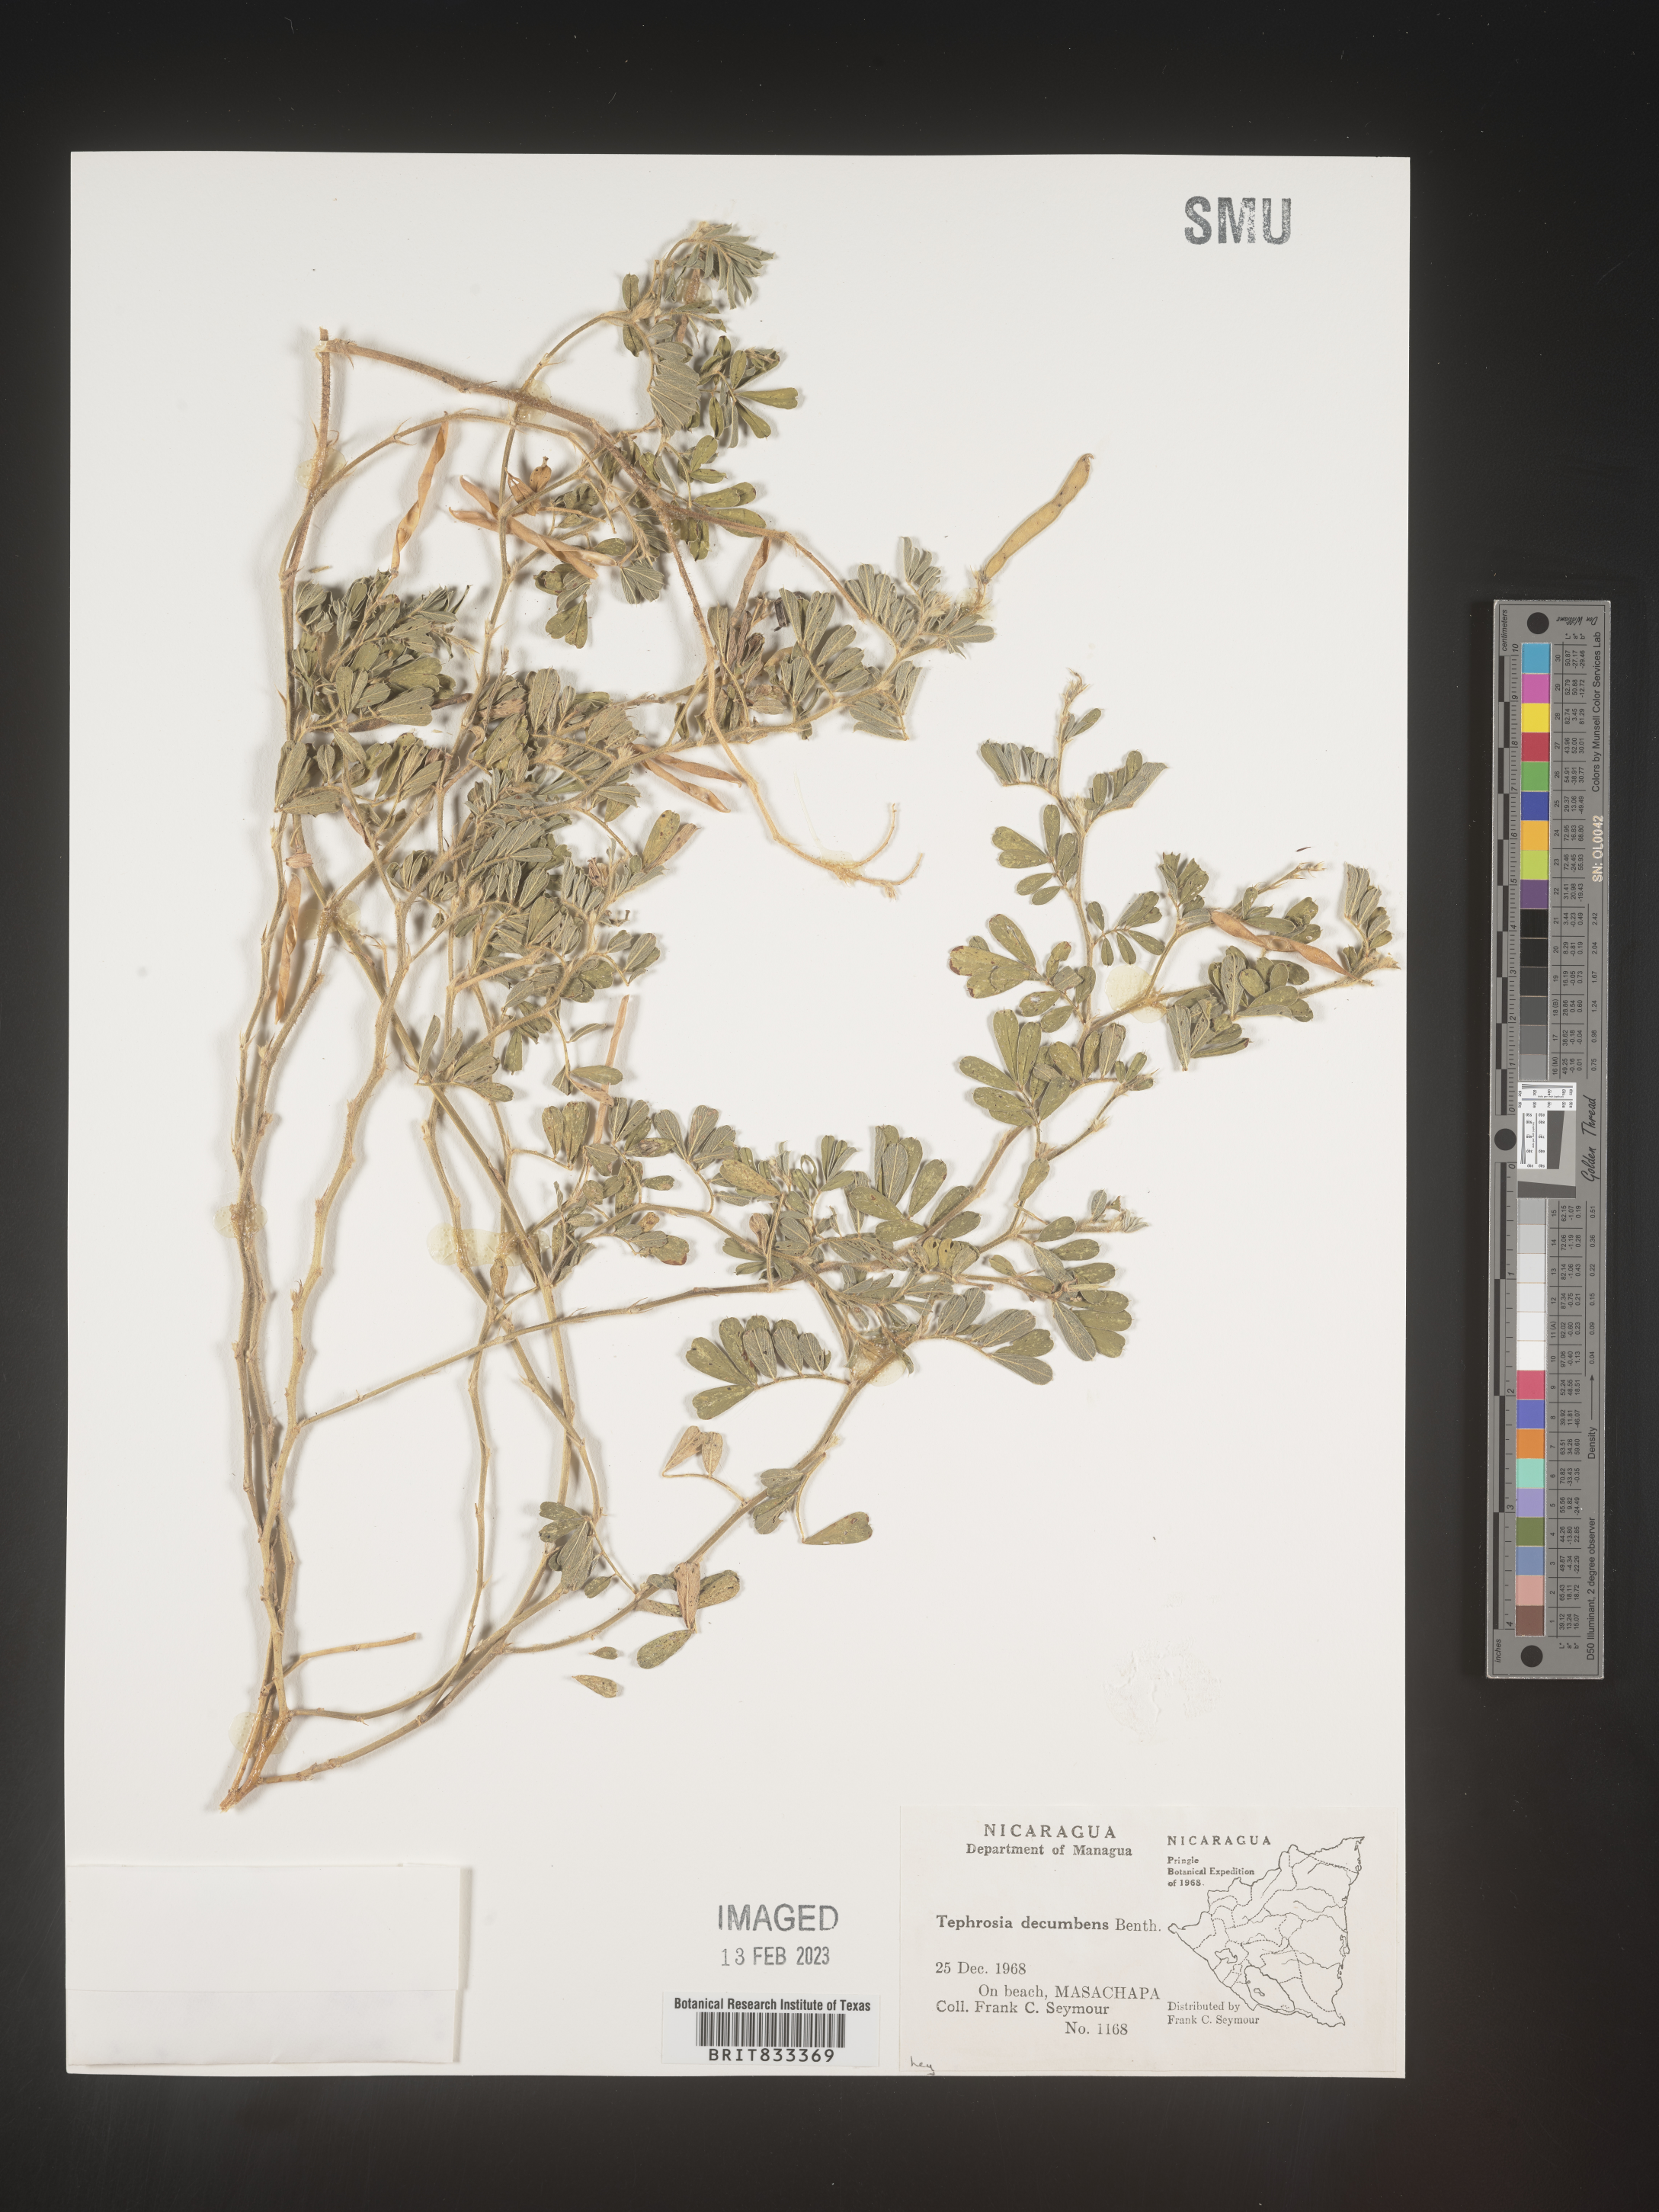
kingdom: Plantae
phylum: Tracheophyta
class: Magnoliopsida
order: Fabales
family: Fabaceae
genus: Tephrosia
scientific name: Tephrosia
